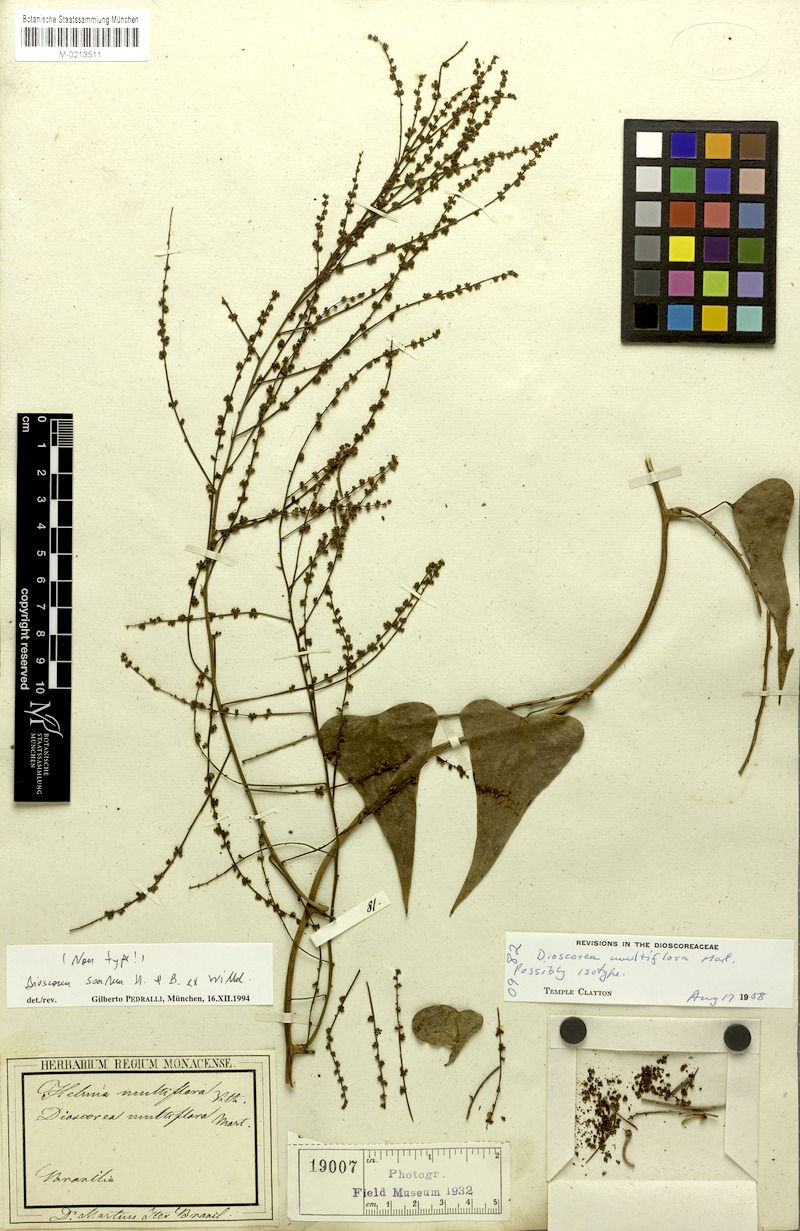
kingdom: Plantae
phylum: Tracheophyta
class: Liliopsida
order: Dioscoreales
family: Dioscoreaceae
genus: Dioscorea
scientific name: Dioscorea multiflora
